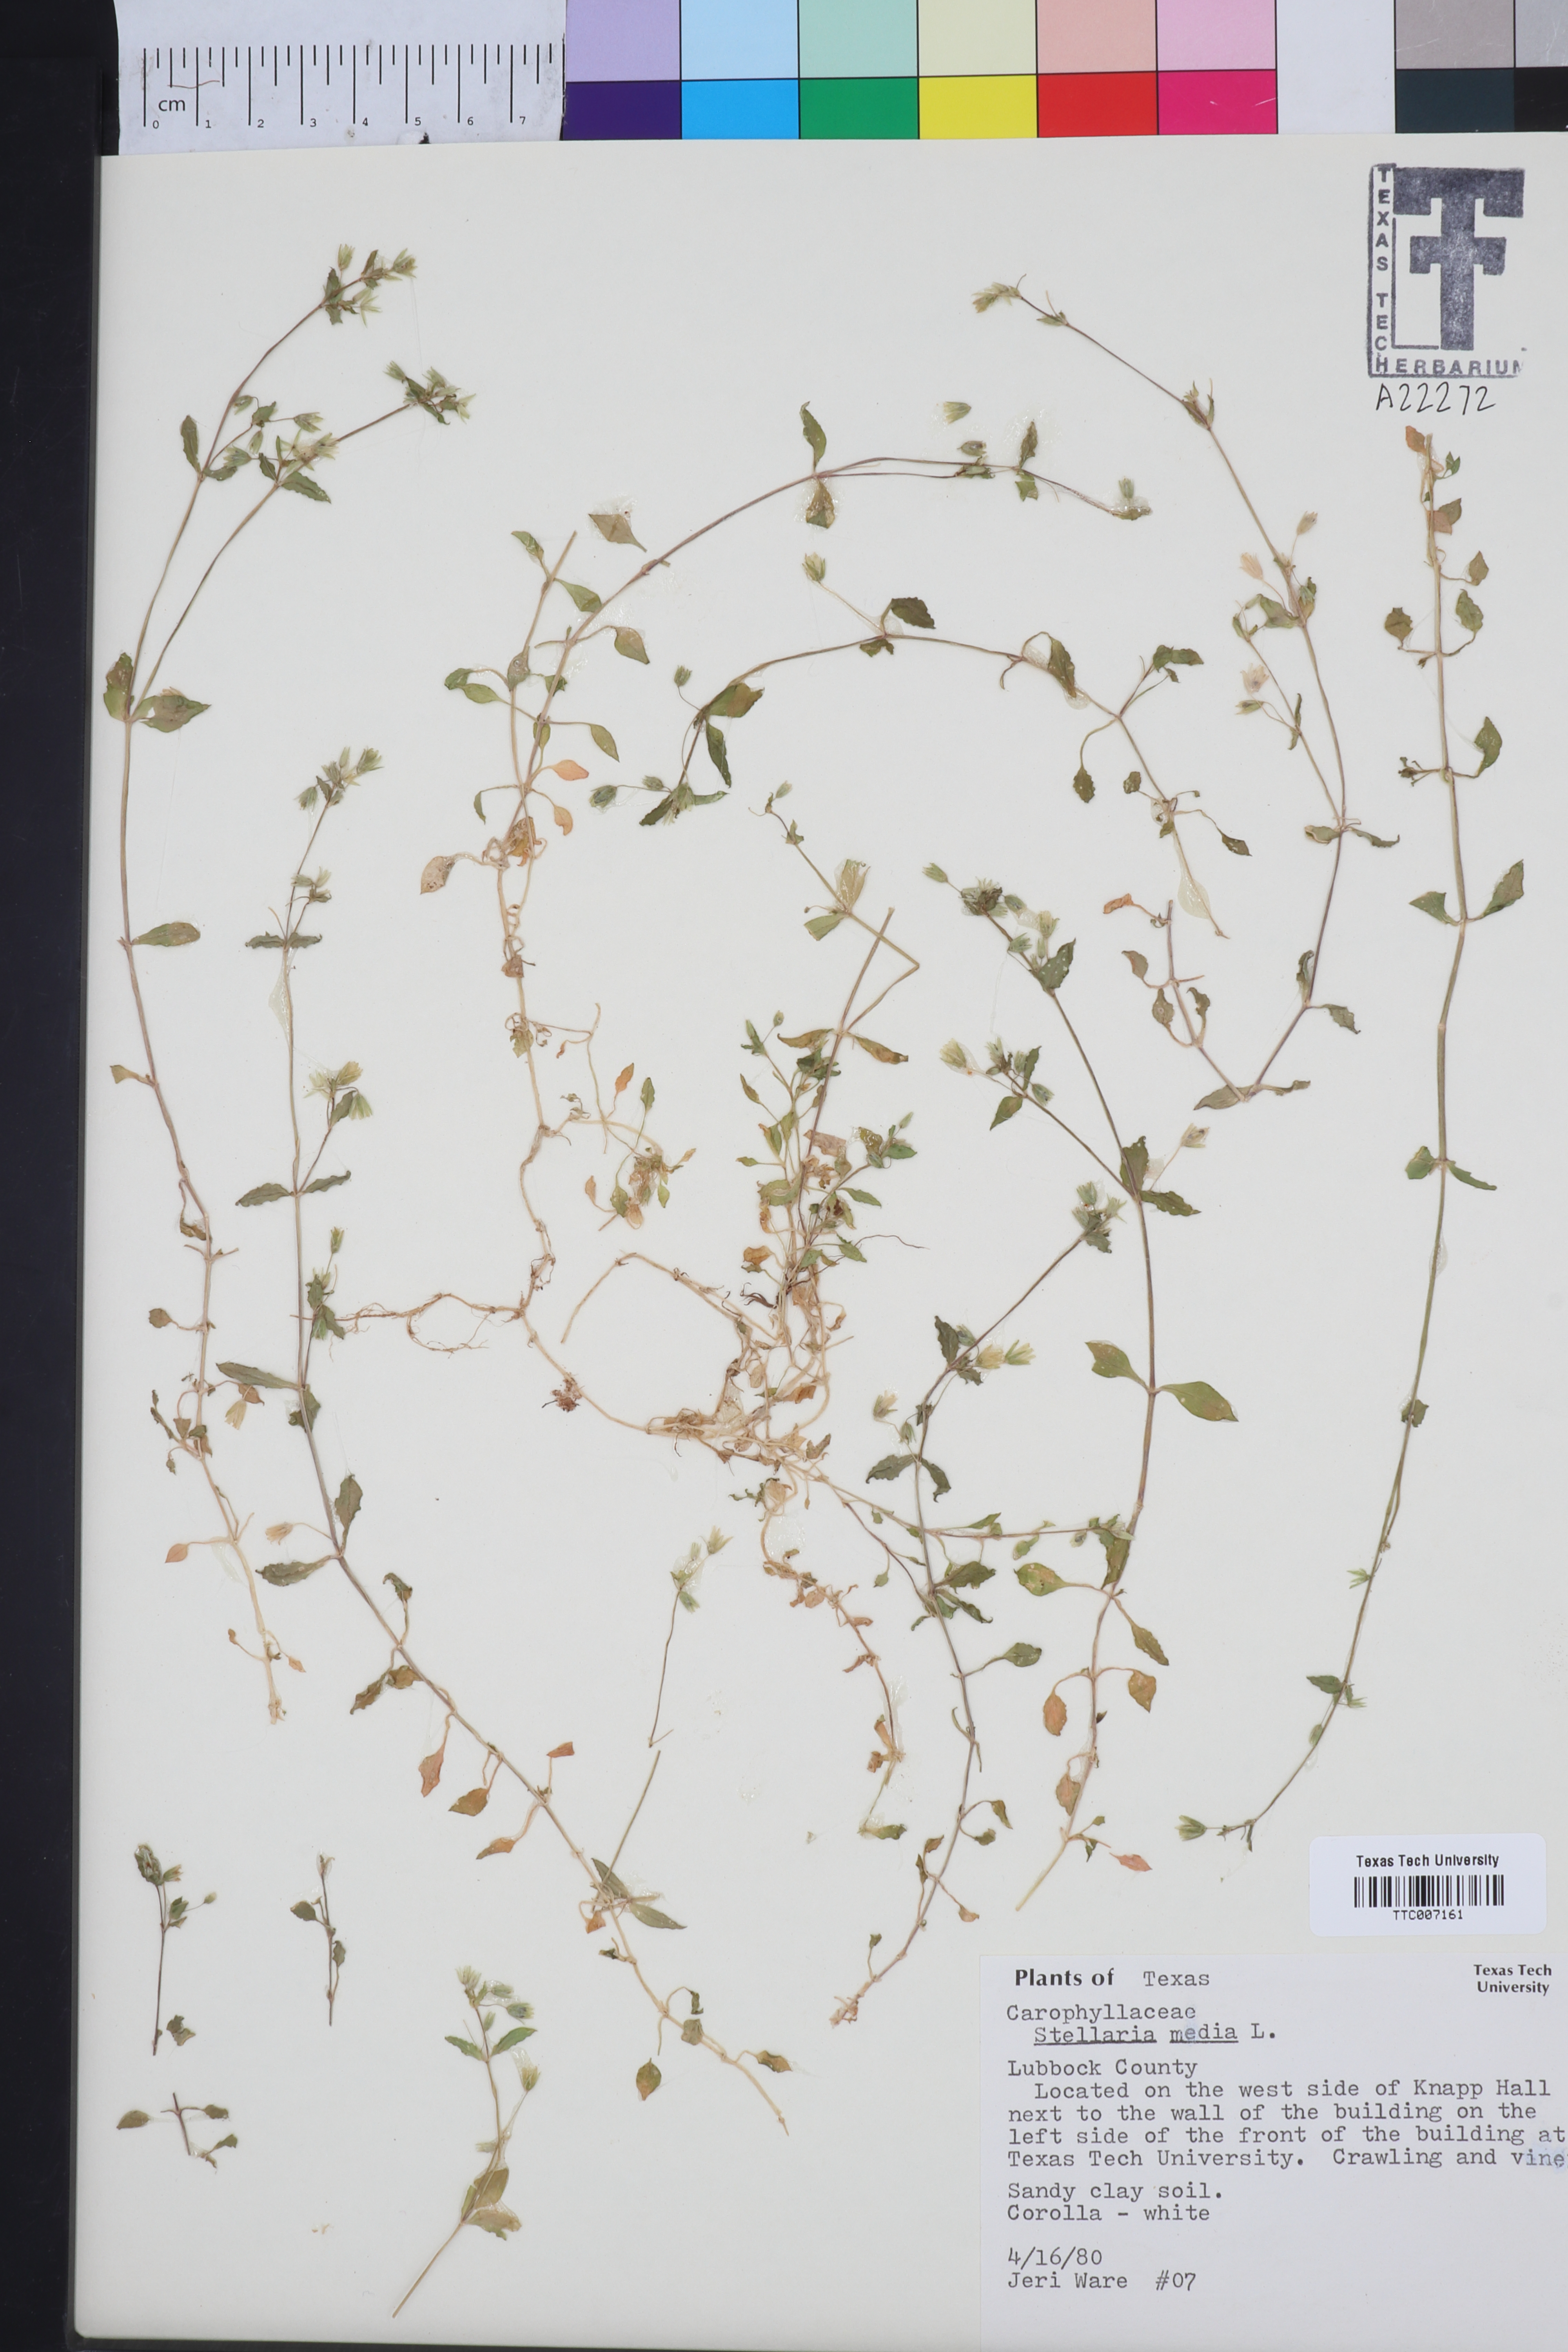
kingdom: Plantae
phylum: Tracheophyta
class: Magnoliopsida
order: Caryophyllales
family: Caryophyllaceae
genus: Stellaria
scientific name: Stellaria media
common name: Common chickweed
